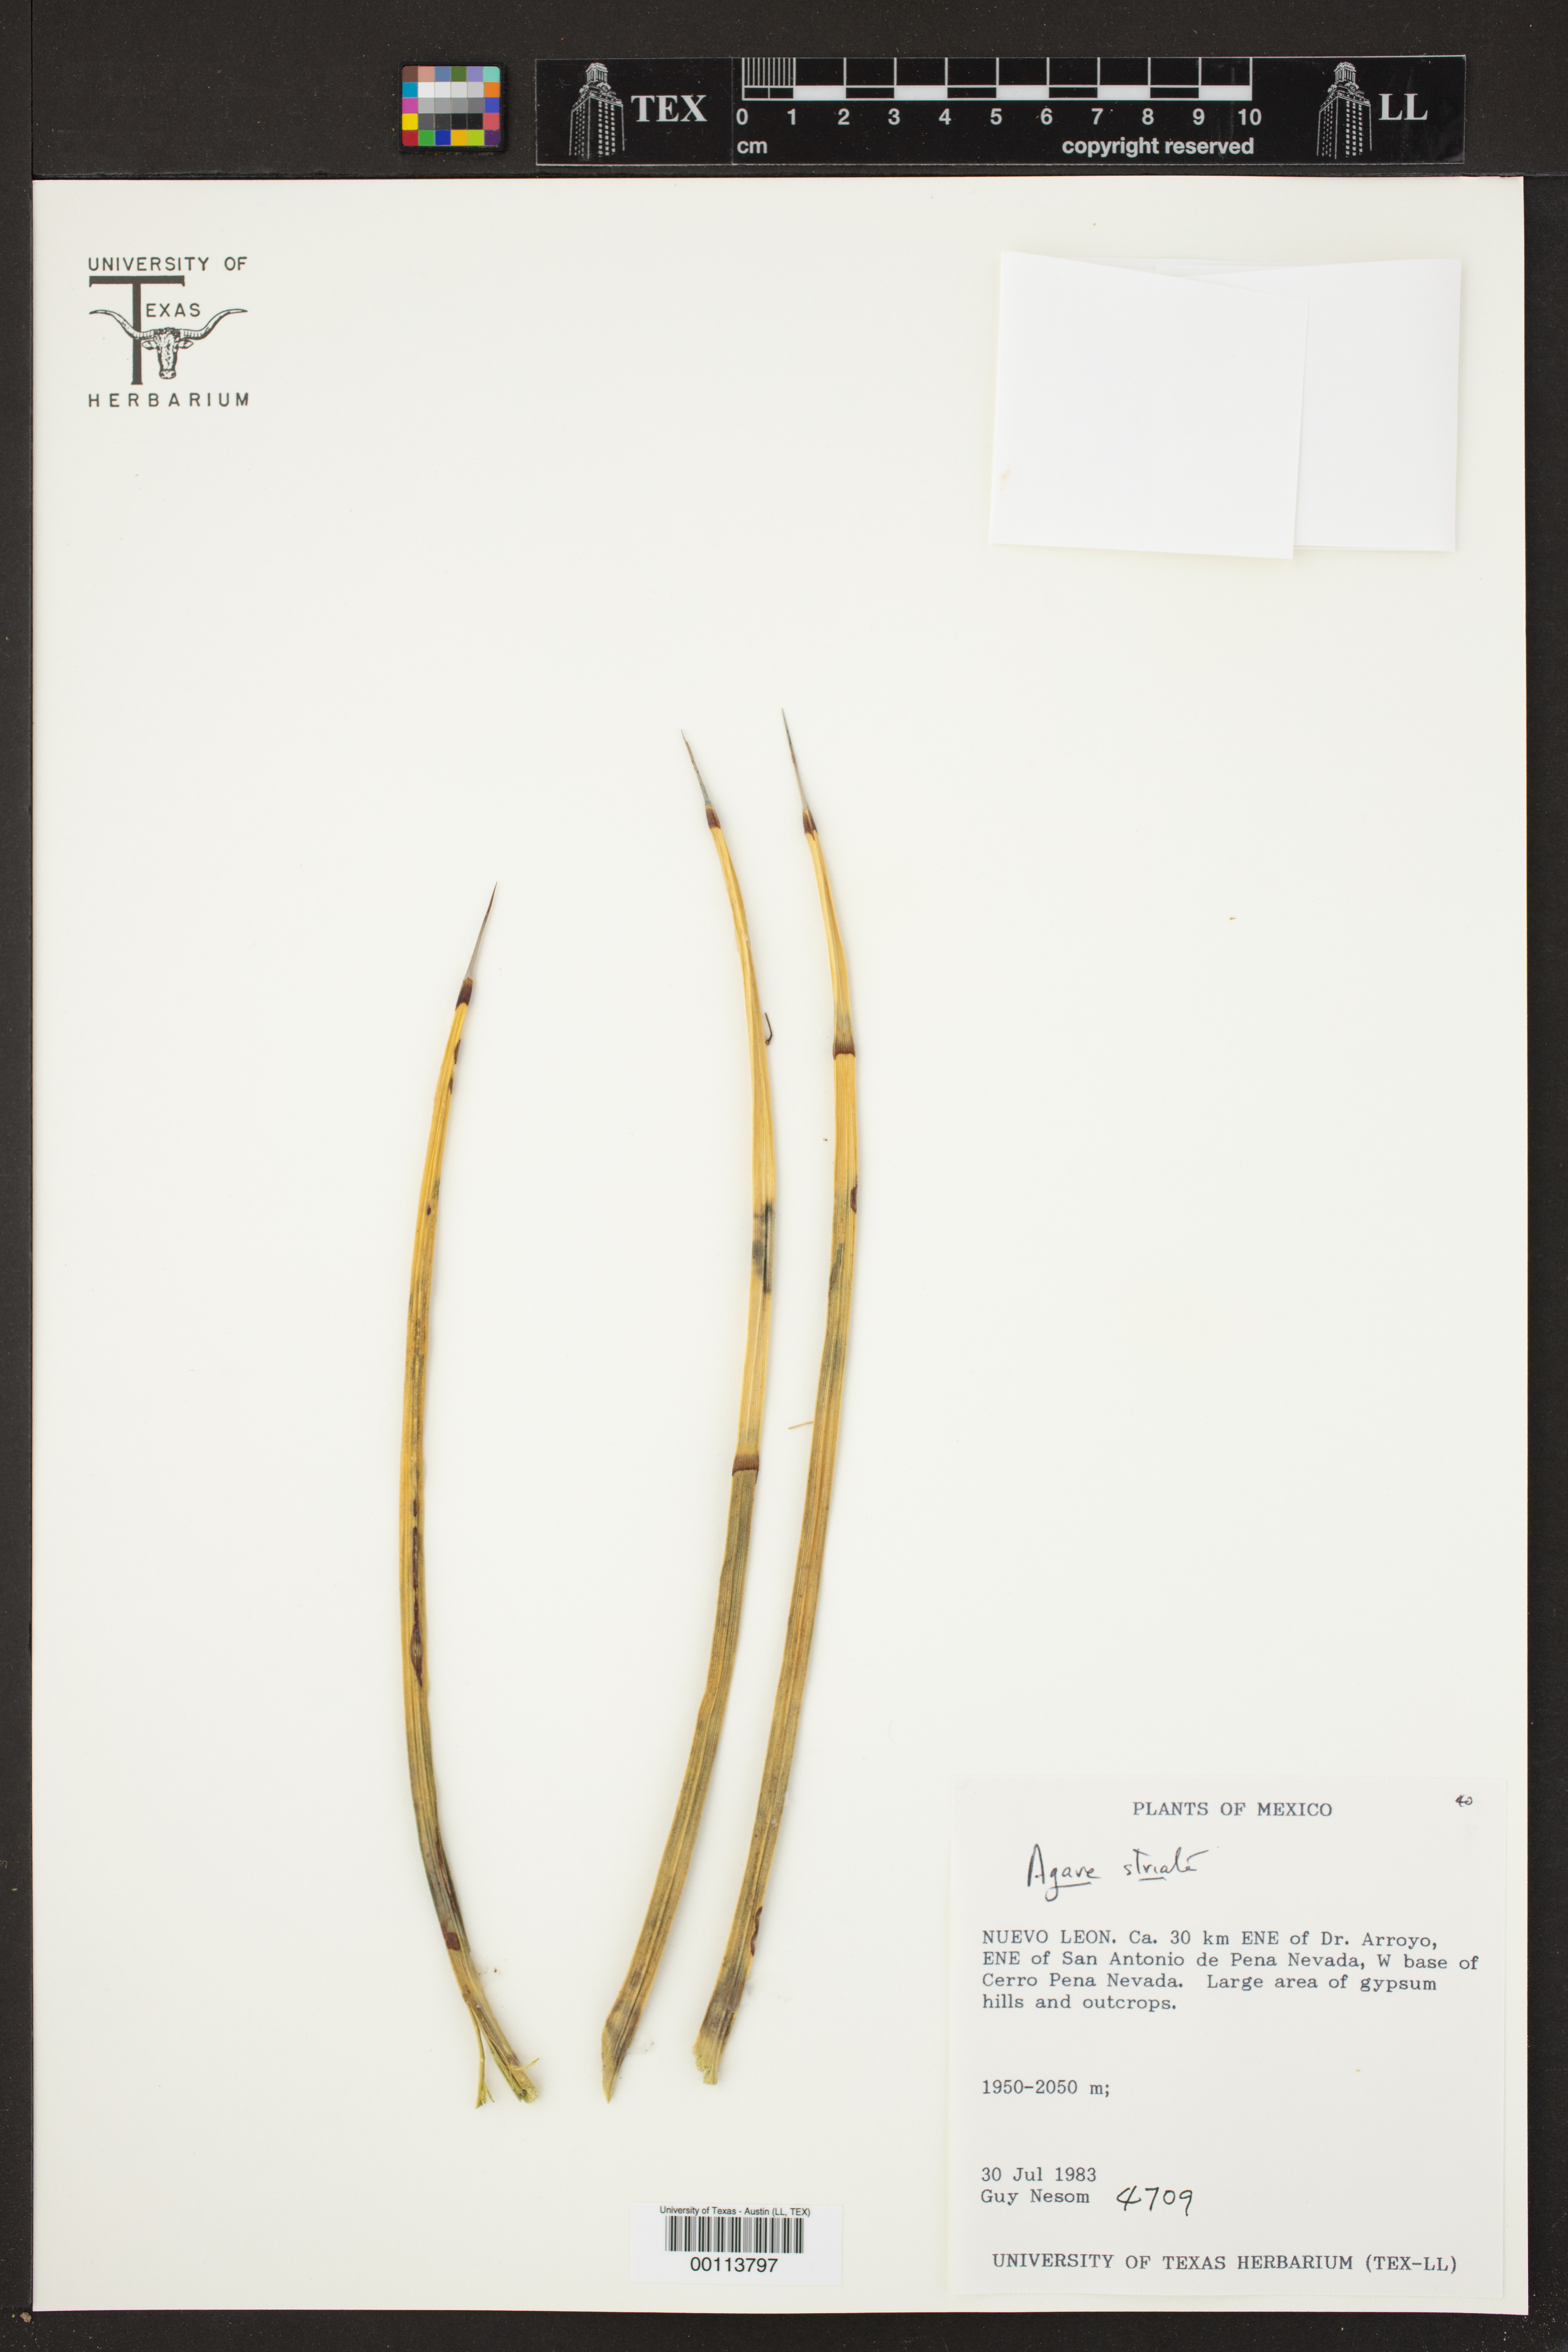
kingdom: Plantae
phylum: Tracheophyta
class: Liliopsida
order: Asparagales
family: Asparagaceae
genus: Agave
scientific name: Agave striata
